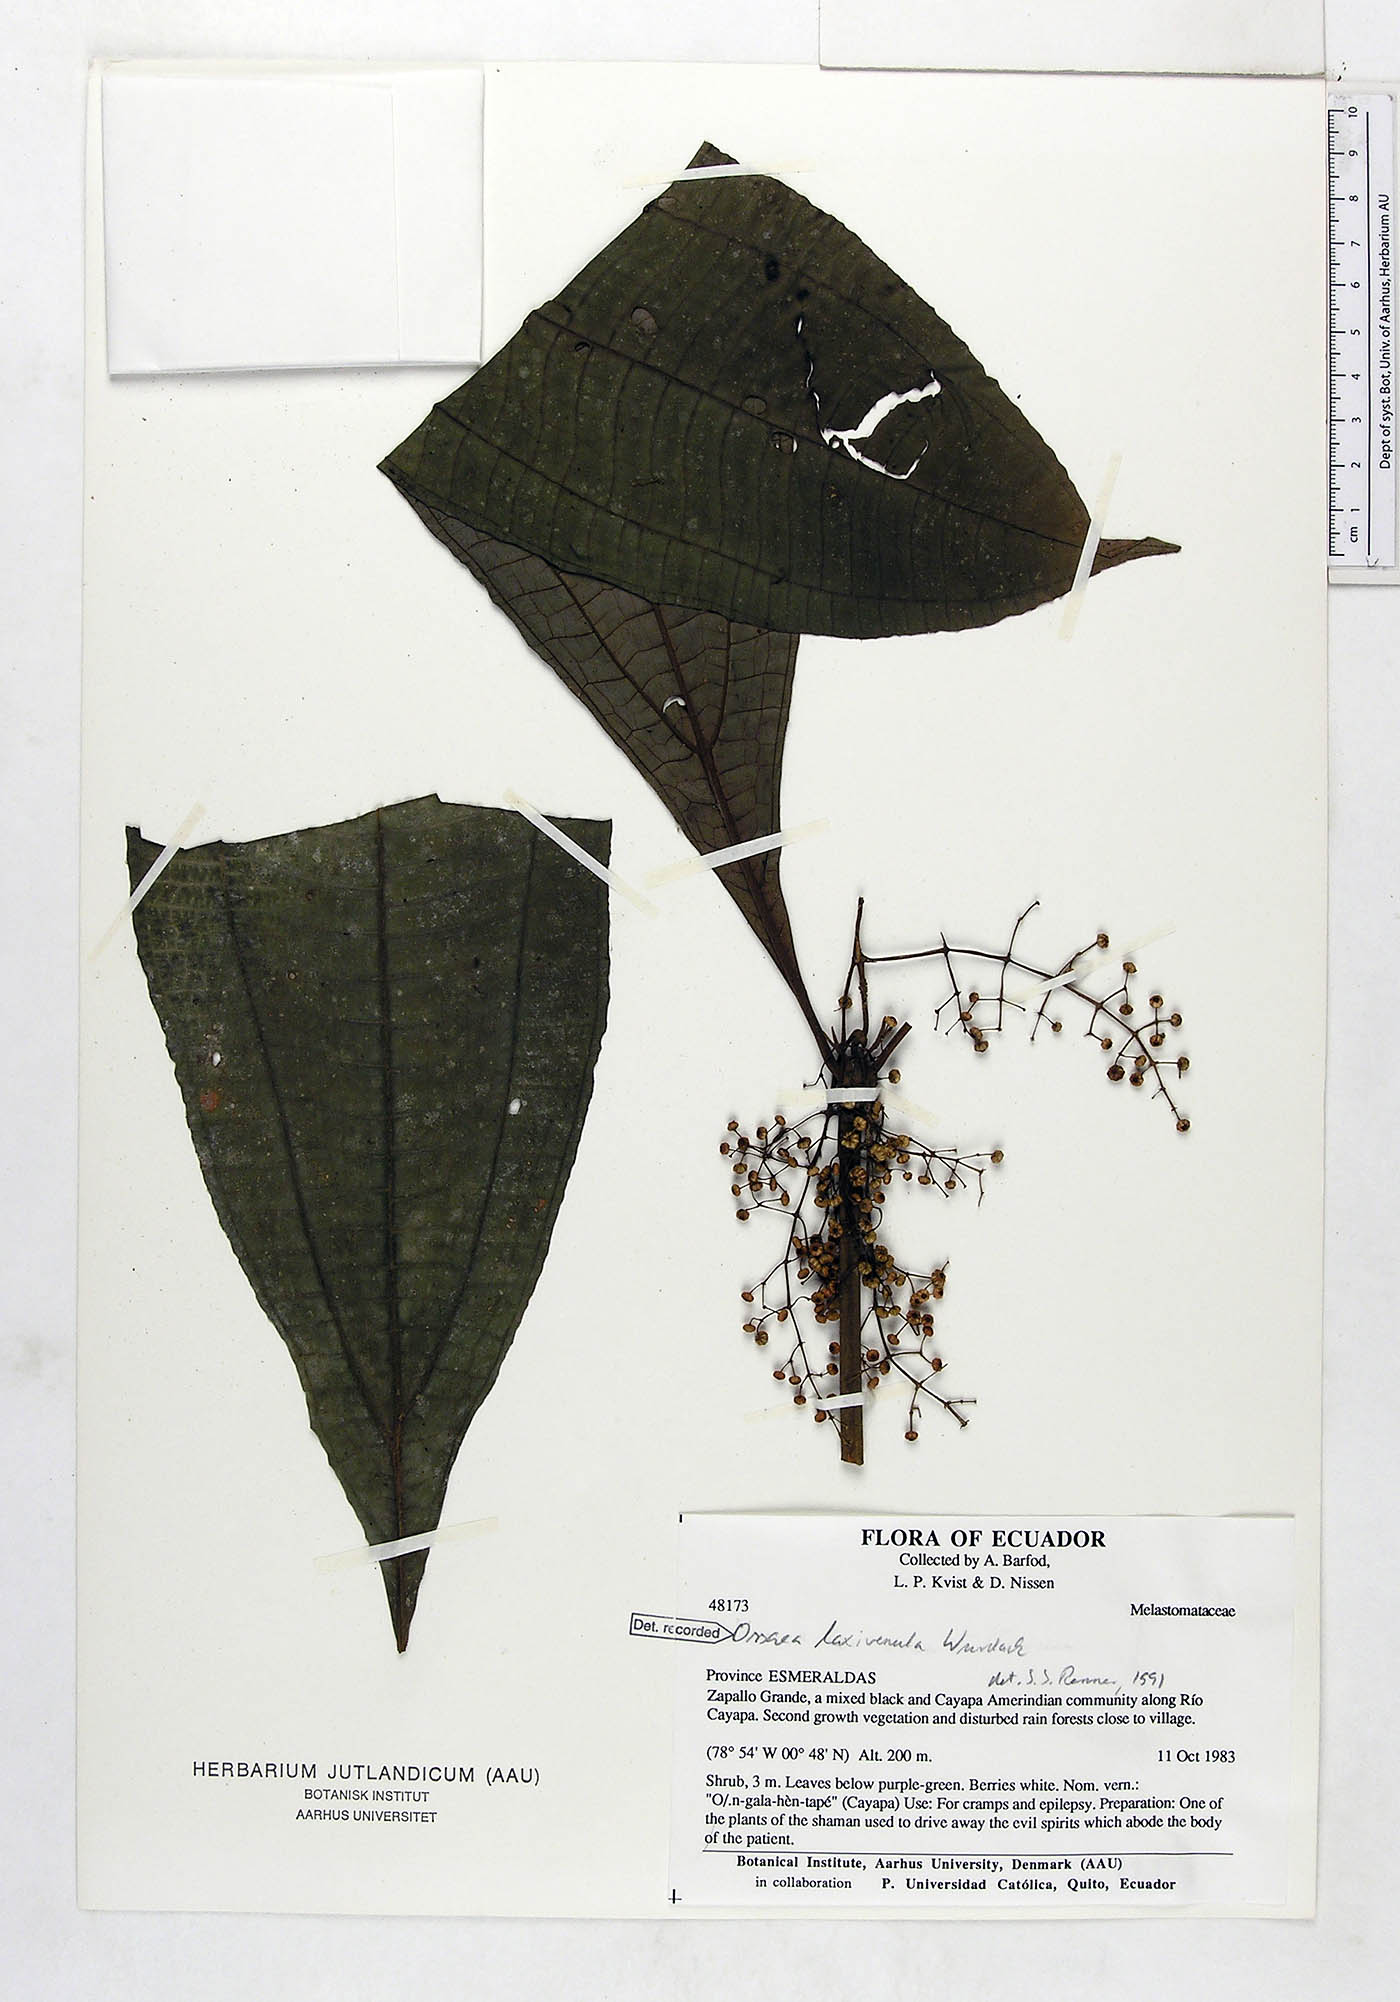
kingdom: Plantae
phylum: Tracheophyta
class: Magnoliopsida
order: Myrtales
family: Melastomataceae
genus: Miconia
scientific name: Miconia laxivenula
